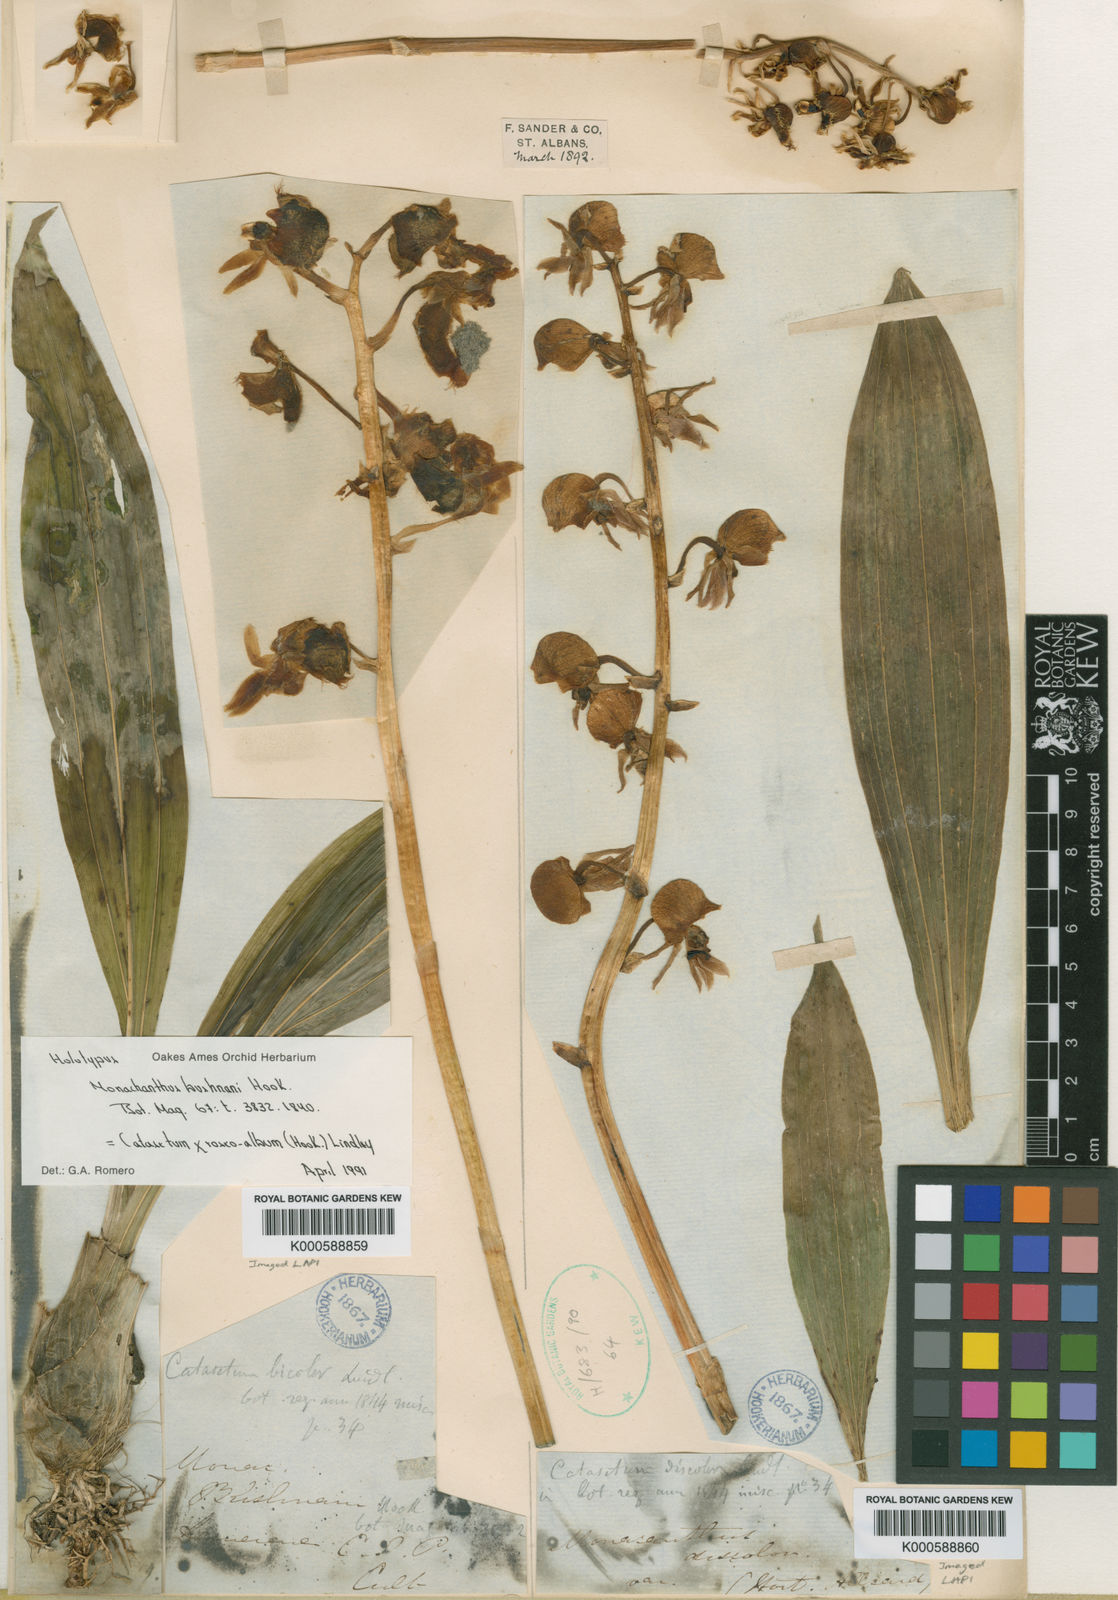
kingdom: Plantae
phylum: Tracheophyta
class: Liliopsida
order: Asparagales
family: Orchidaceae
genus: Catasetum
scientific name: Catasetum roseoalbum
